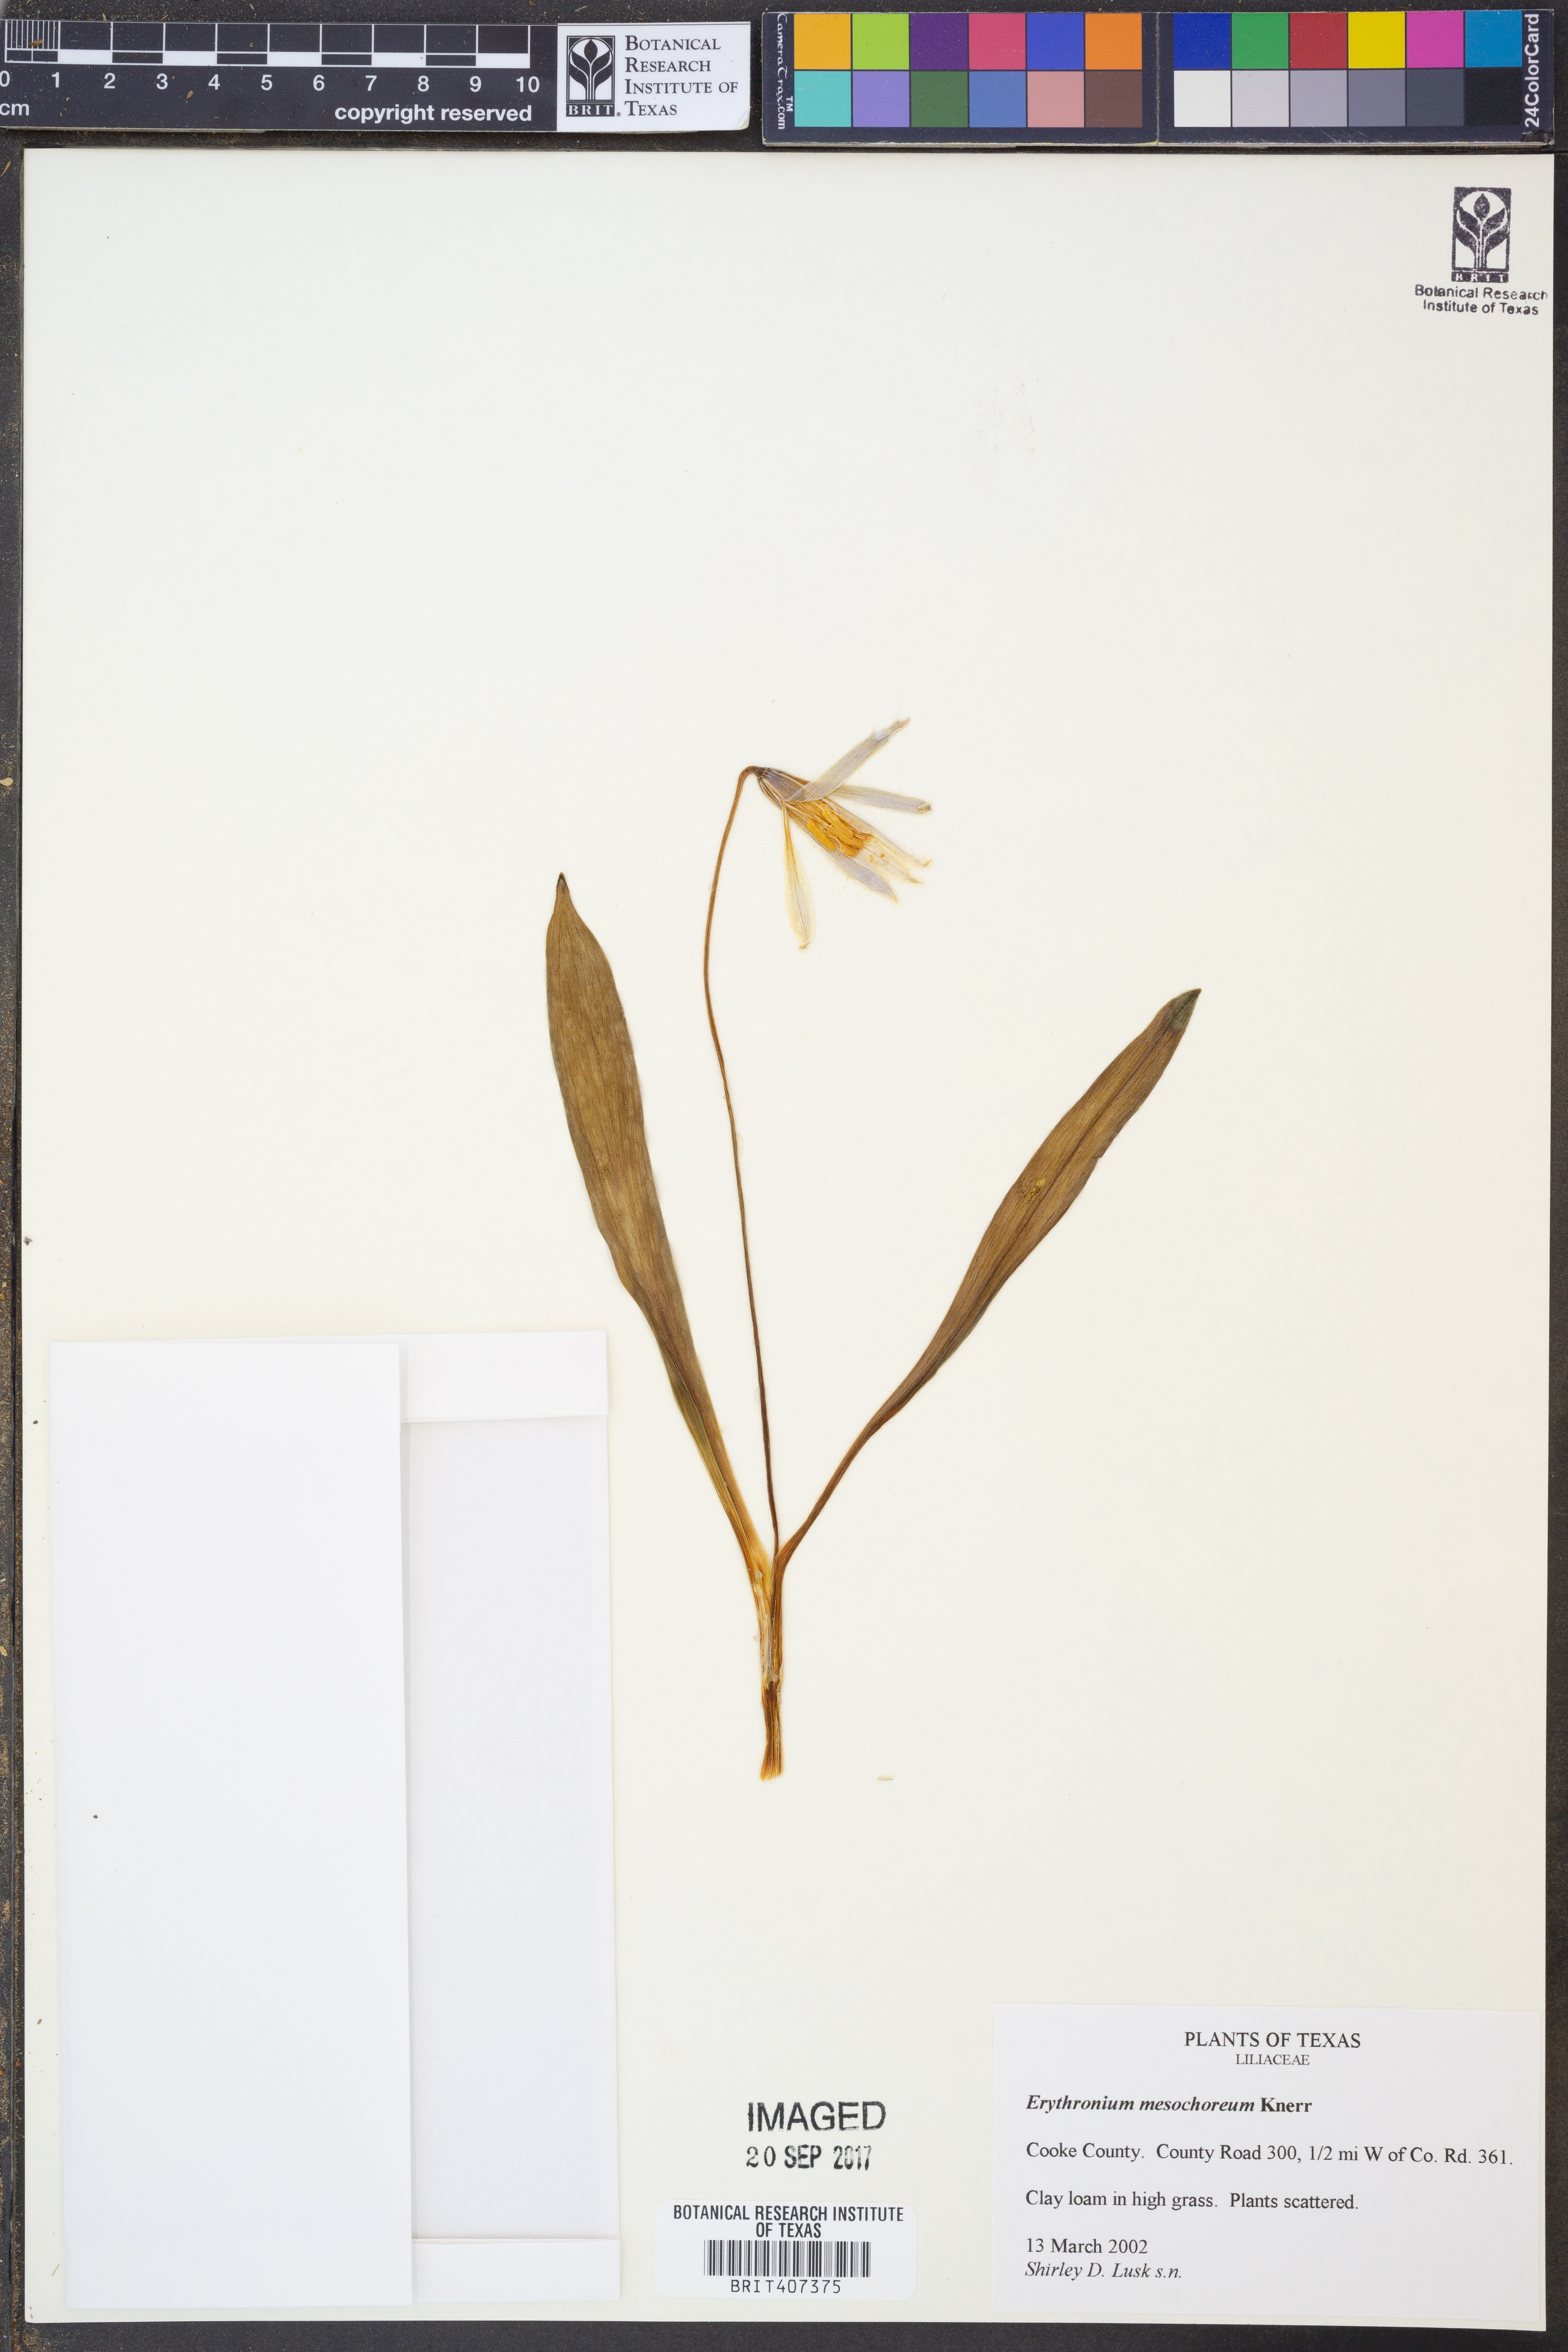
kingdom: Plantae
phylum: Tracheophyta
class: Liliopsida
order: Liliales
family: Liliaceae
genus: Erythronium
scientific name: Erythronium mesochoreum
